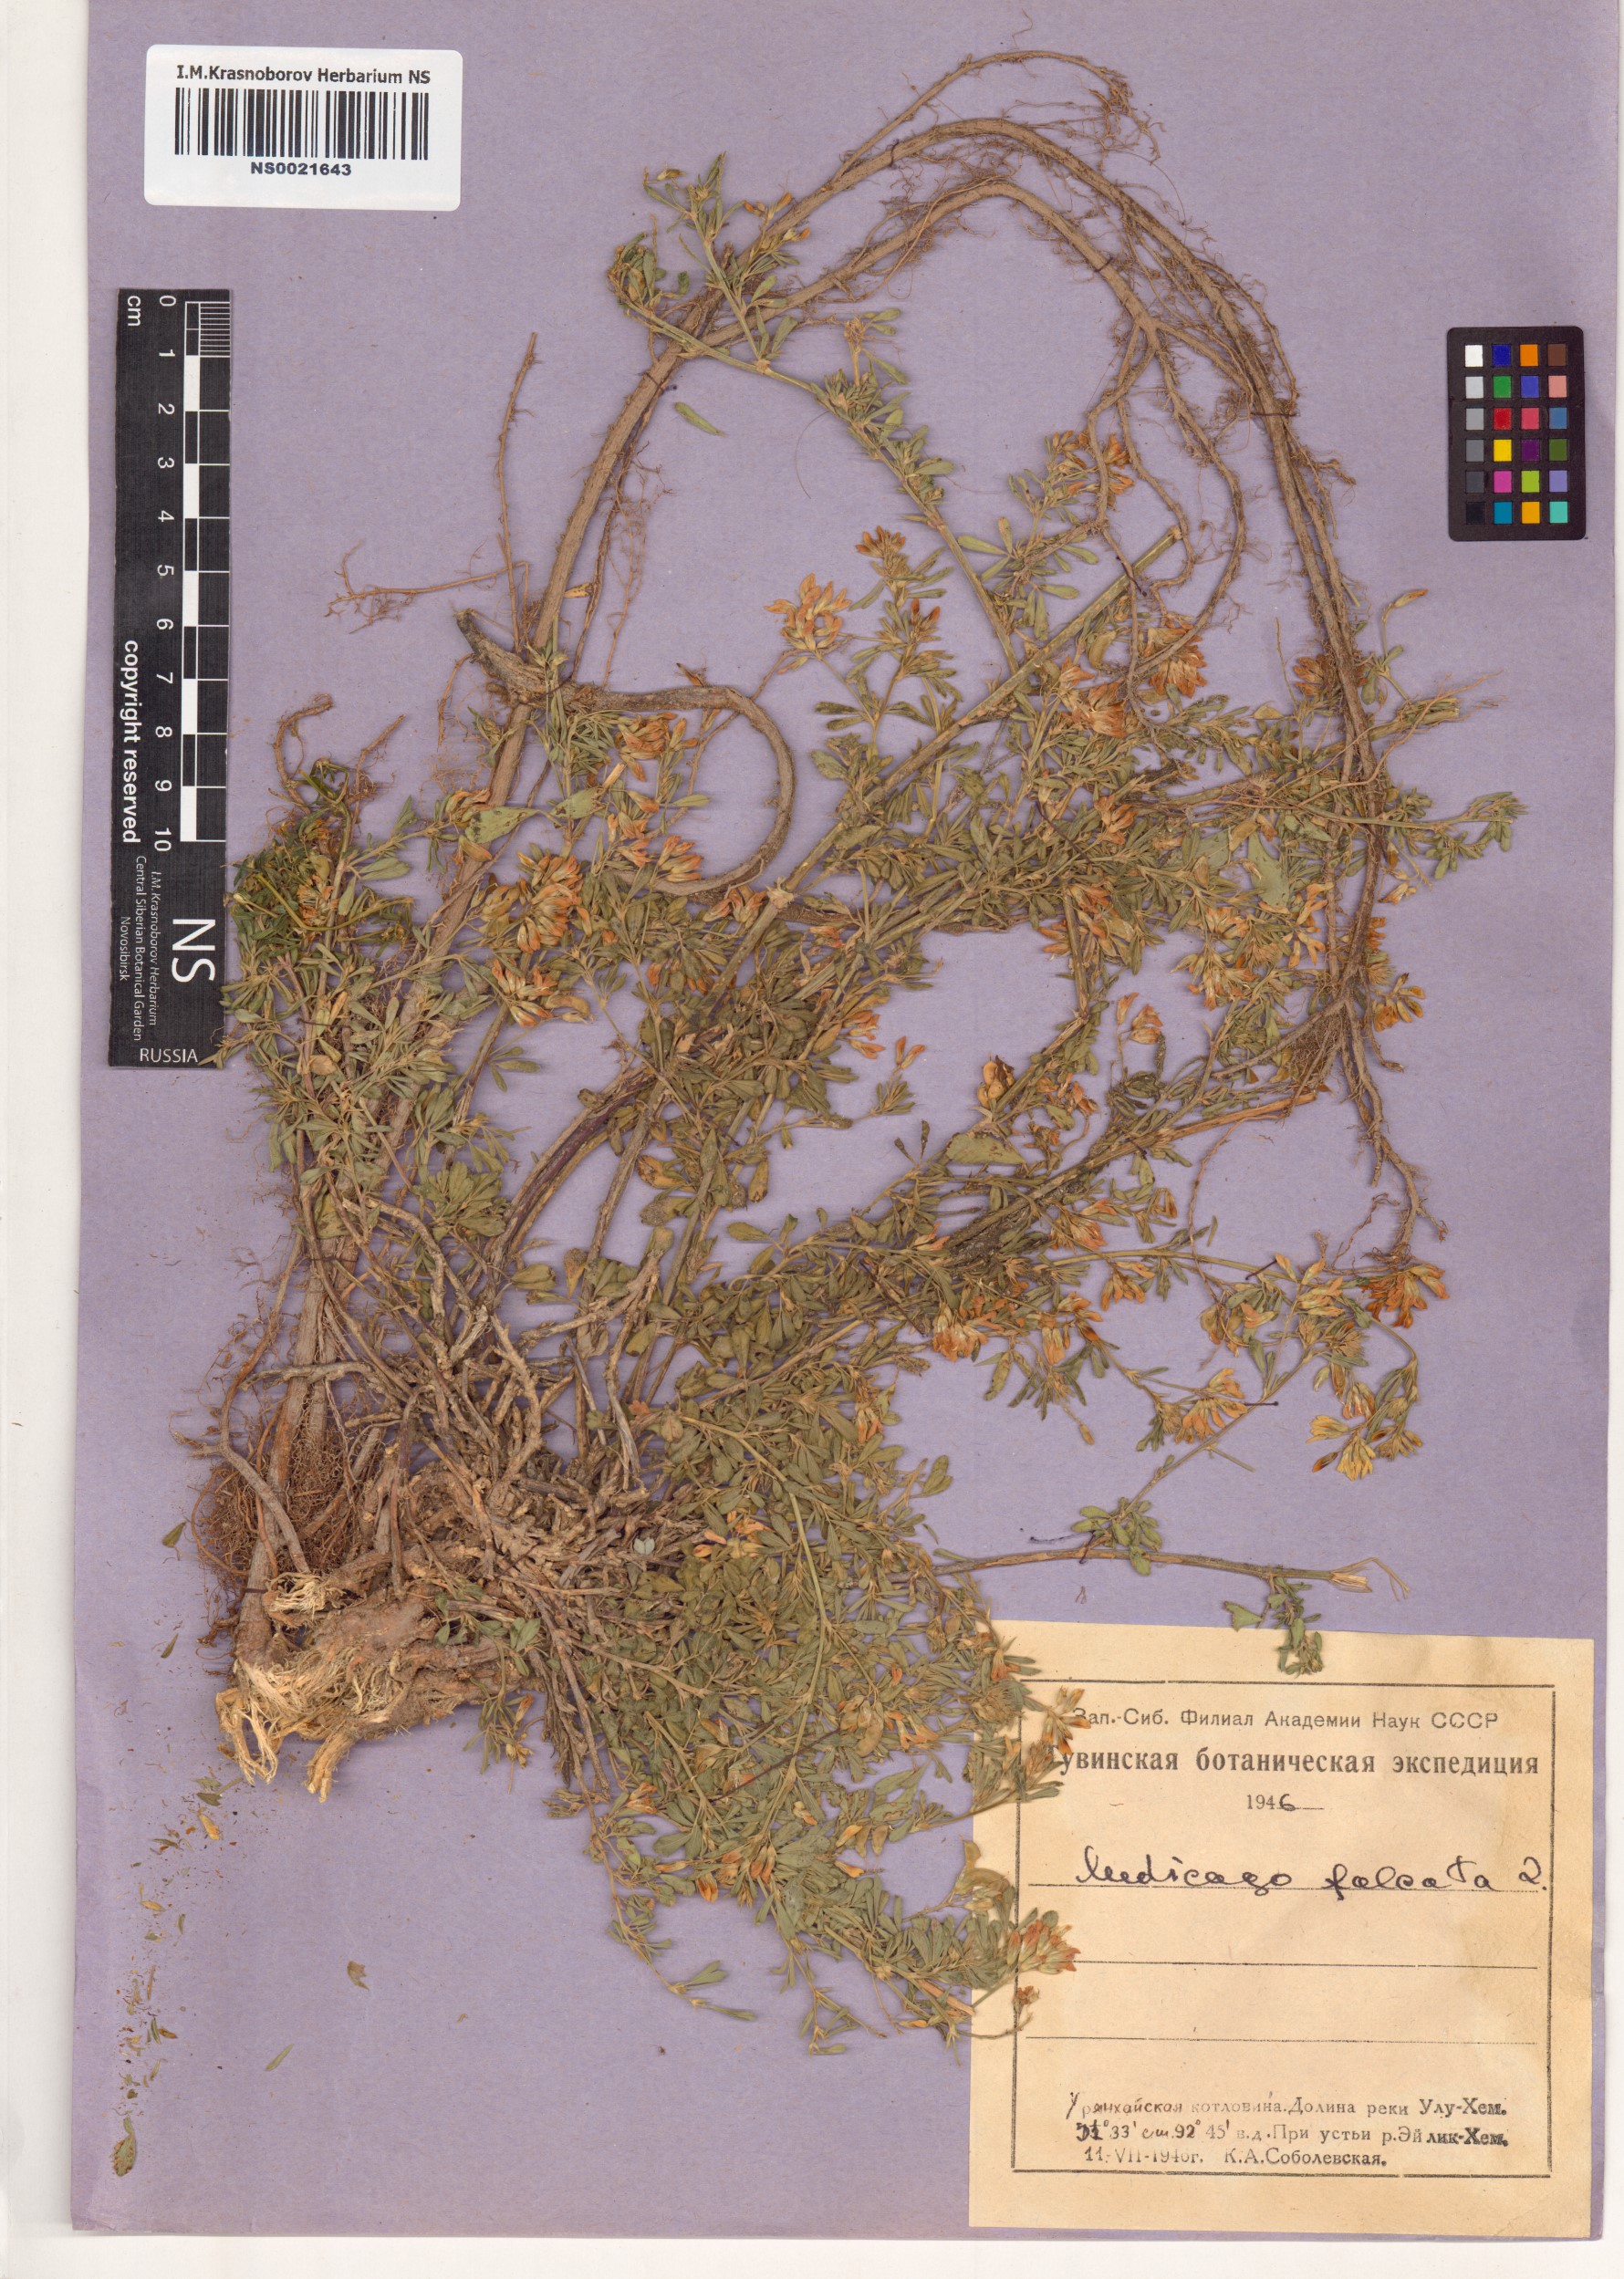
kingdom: Plantae
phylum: Tracheophyta
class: Magnoliopsida
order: Fabales
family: Fabaceae
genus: Medicago
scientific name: Medicago falcata
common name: Sickle medick
